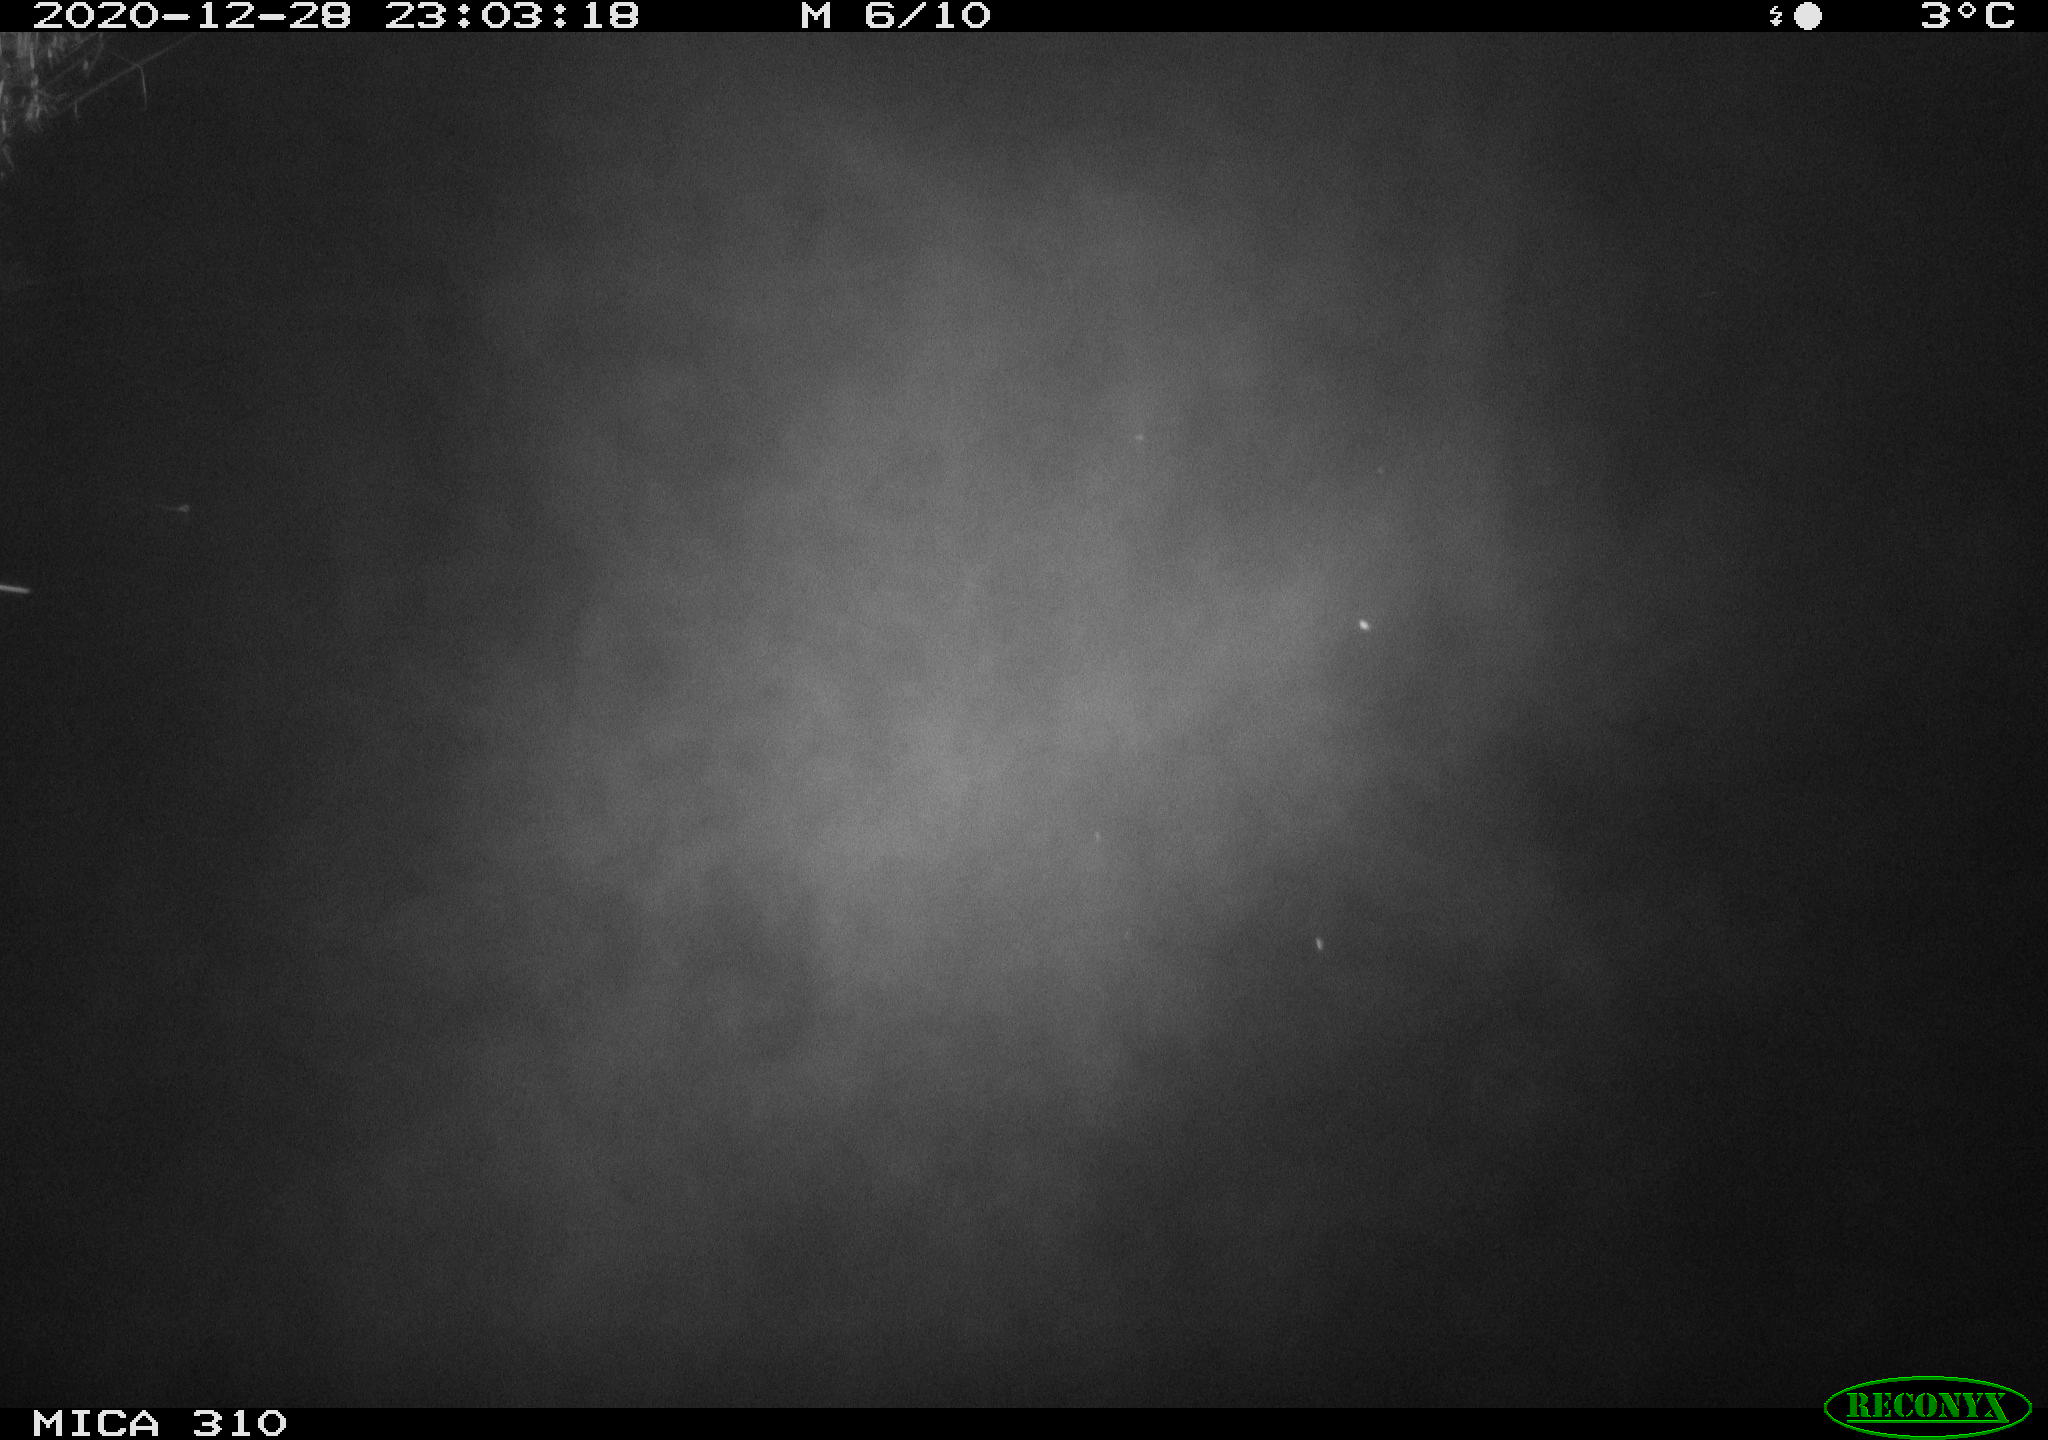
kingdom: Animalia
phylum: Chordata
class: Mammalia
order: Rodentia
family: Muridae
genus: Rattus
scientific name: Rattus norvegicus
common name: Brown rat
